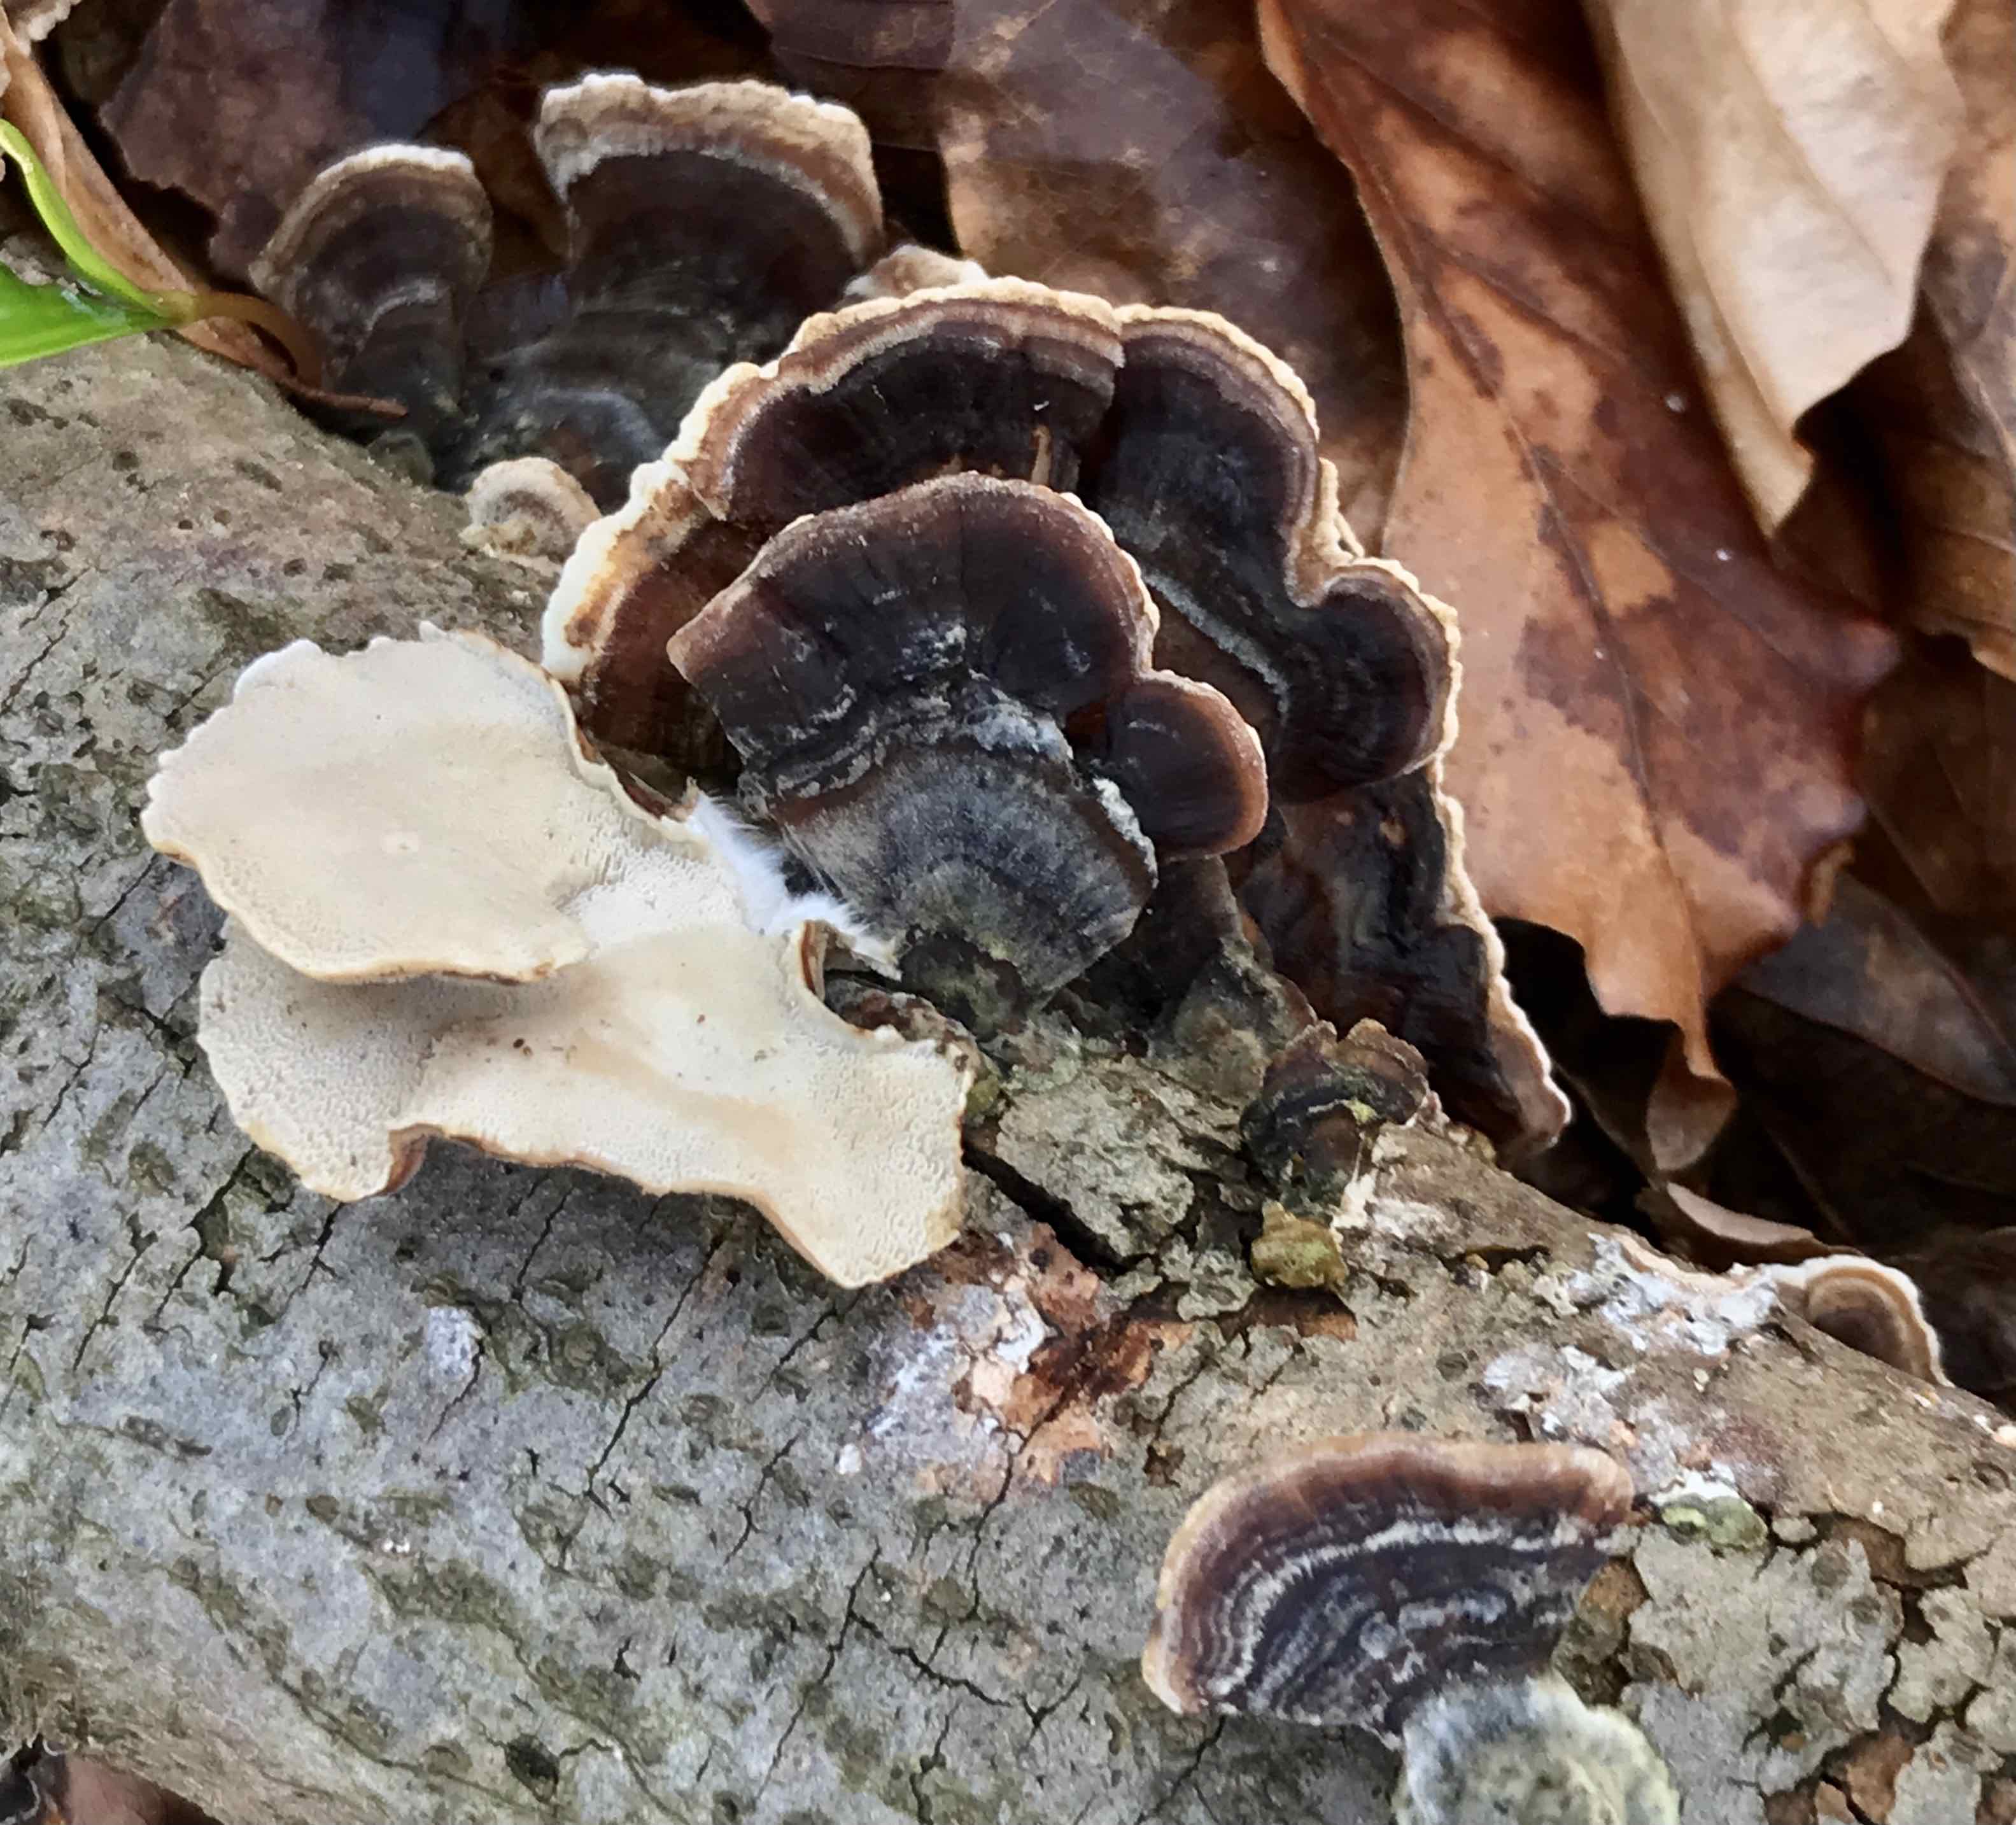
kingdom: Fungi
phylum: Basidiomycota
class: Agaricomycetes
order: Polyporales
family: Polyporaceae
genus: Trametes
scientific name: Trametes versicolor
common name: broget læderporesvamp
